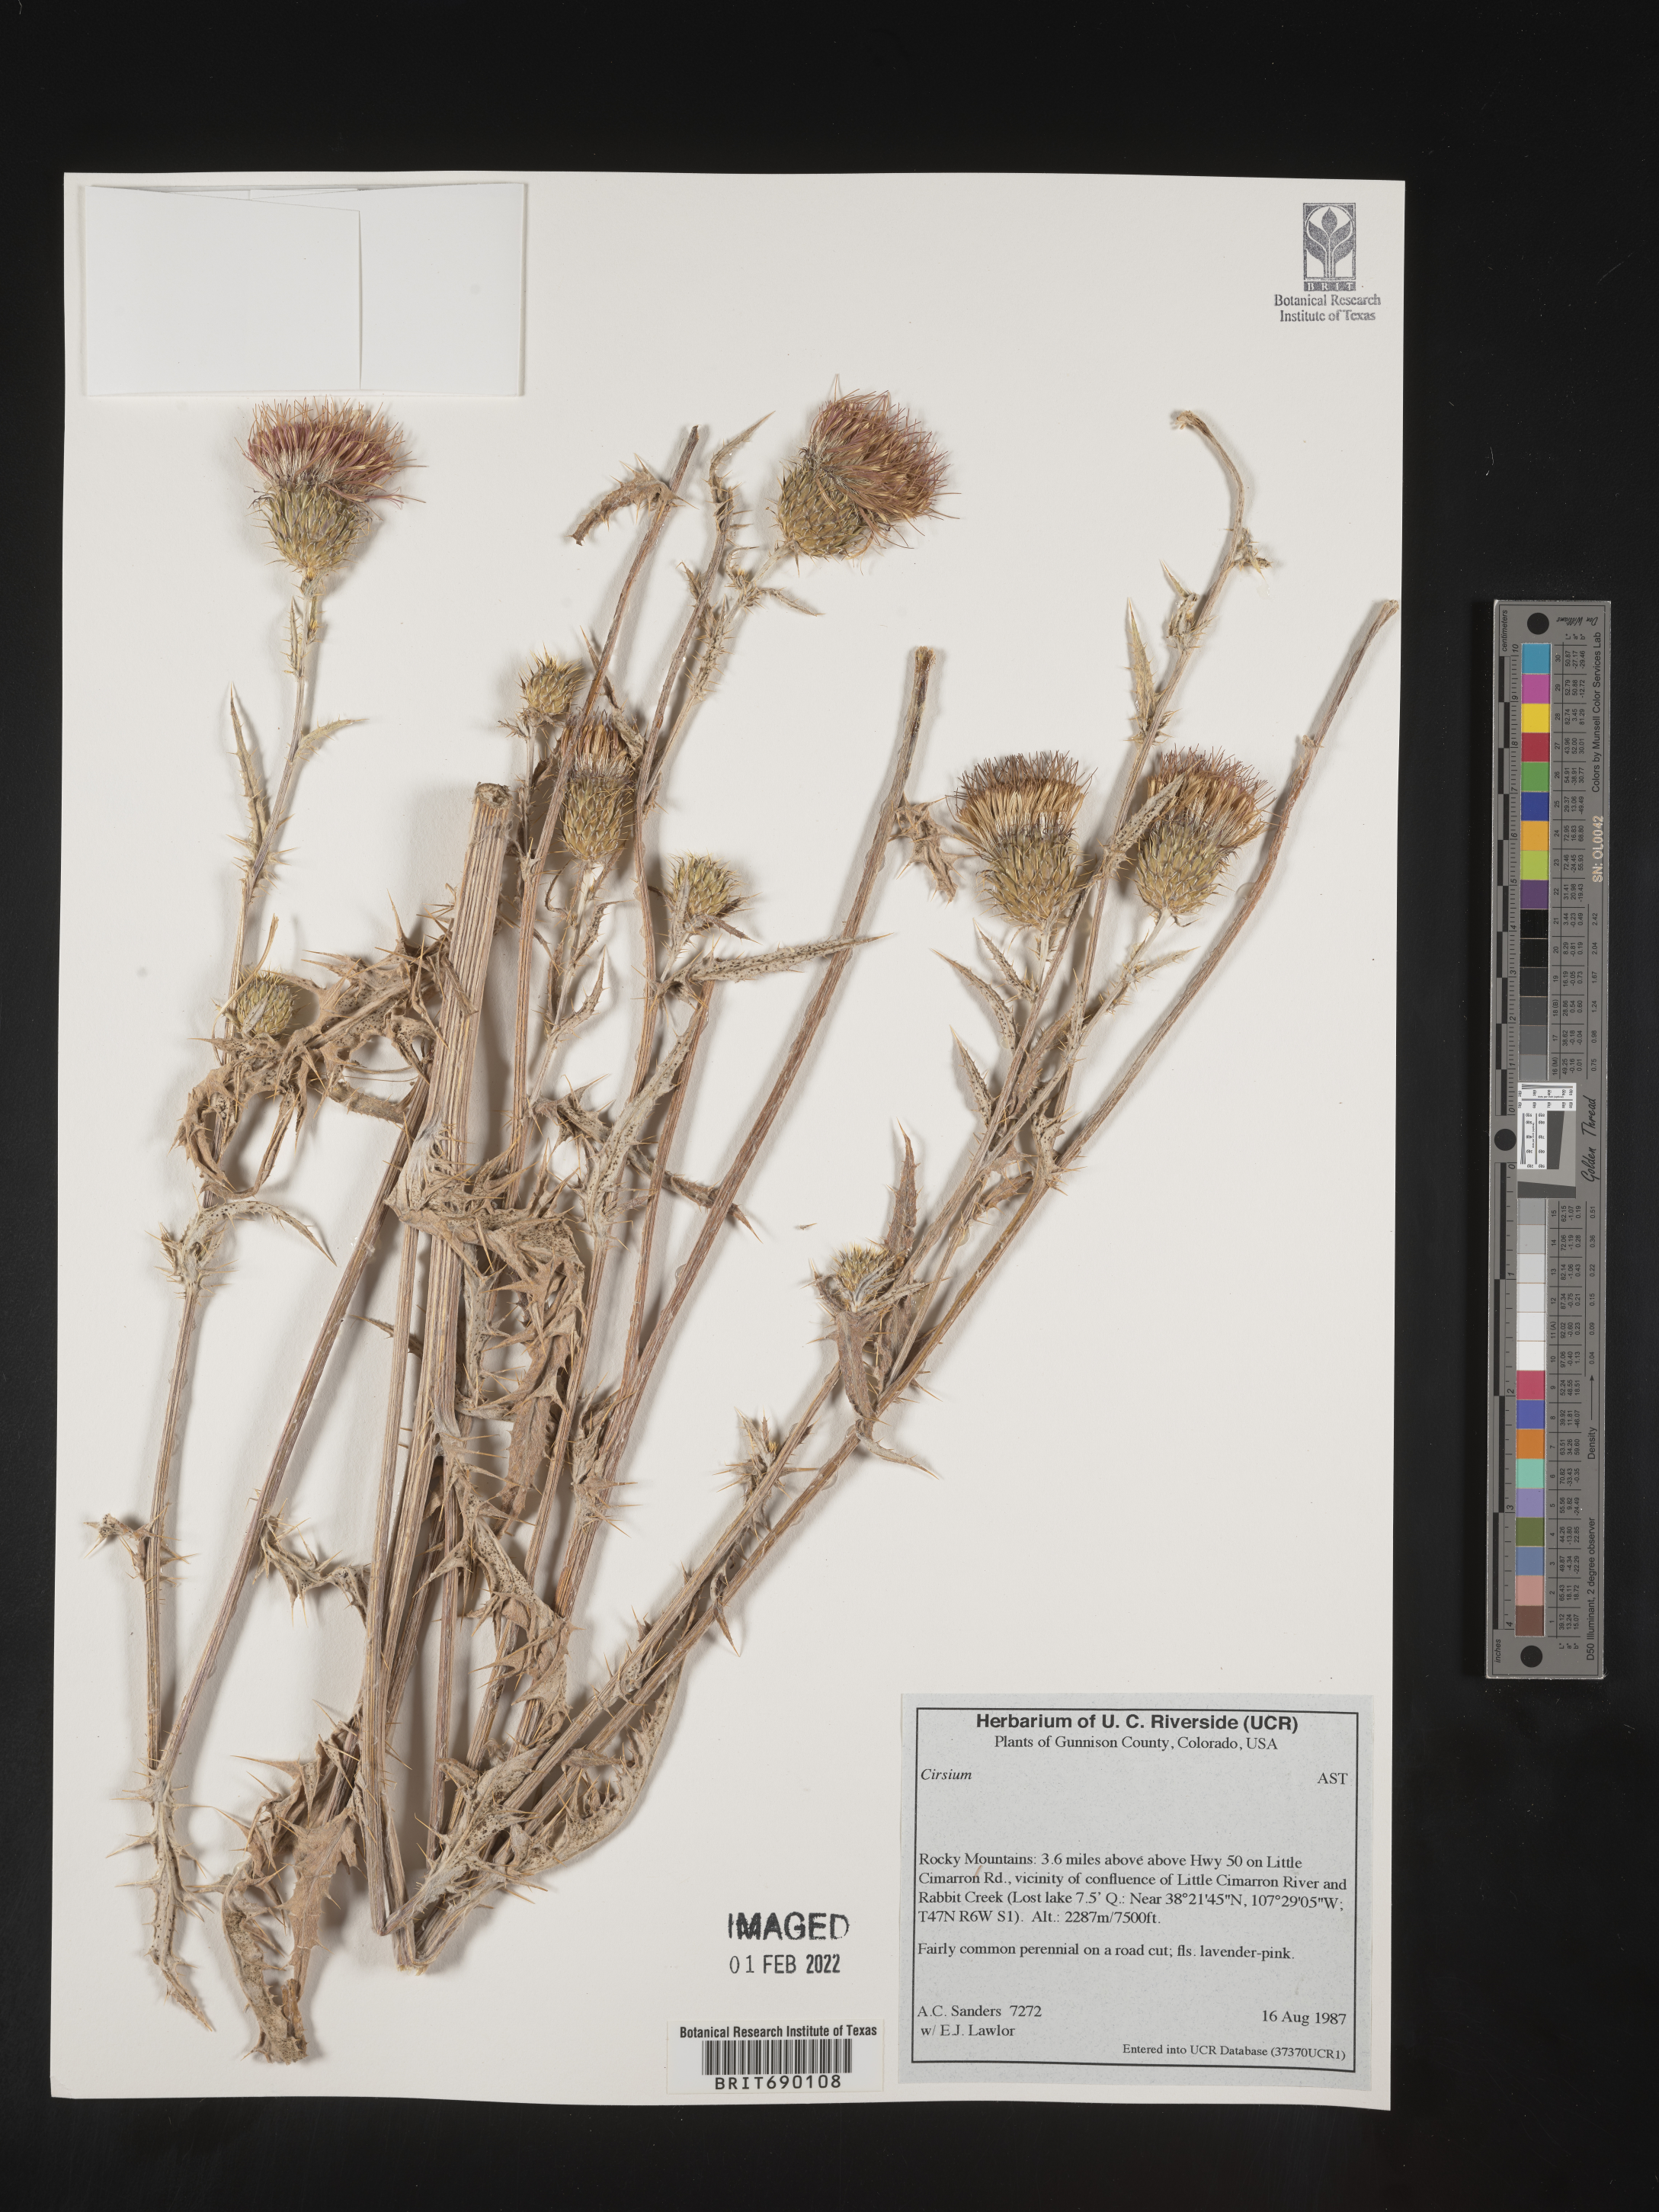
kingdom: Plantae
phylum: Tracheophyta
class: Magnoliopsida
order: Asterales
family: Asteraceae
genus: Cirsium
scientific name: Cirsium
